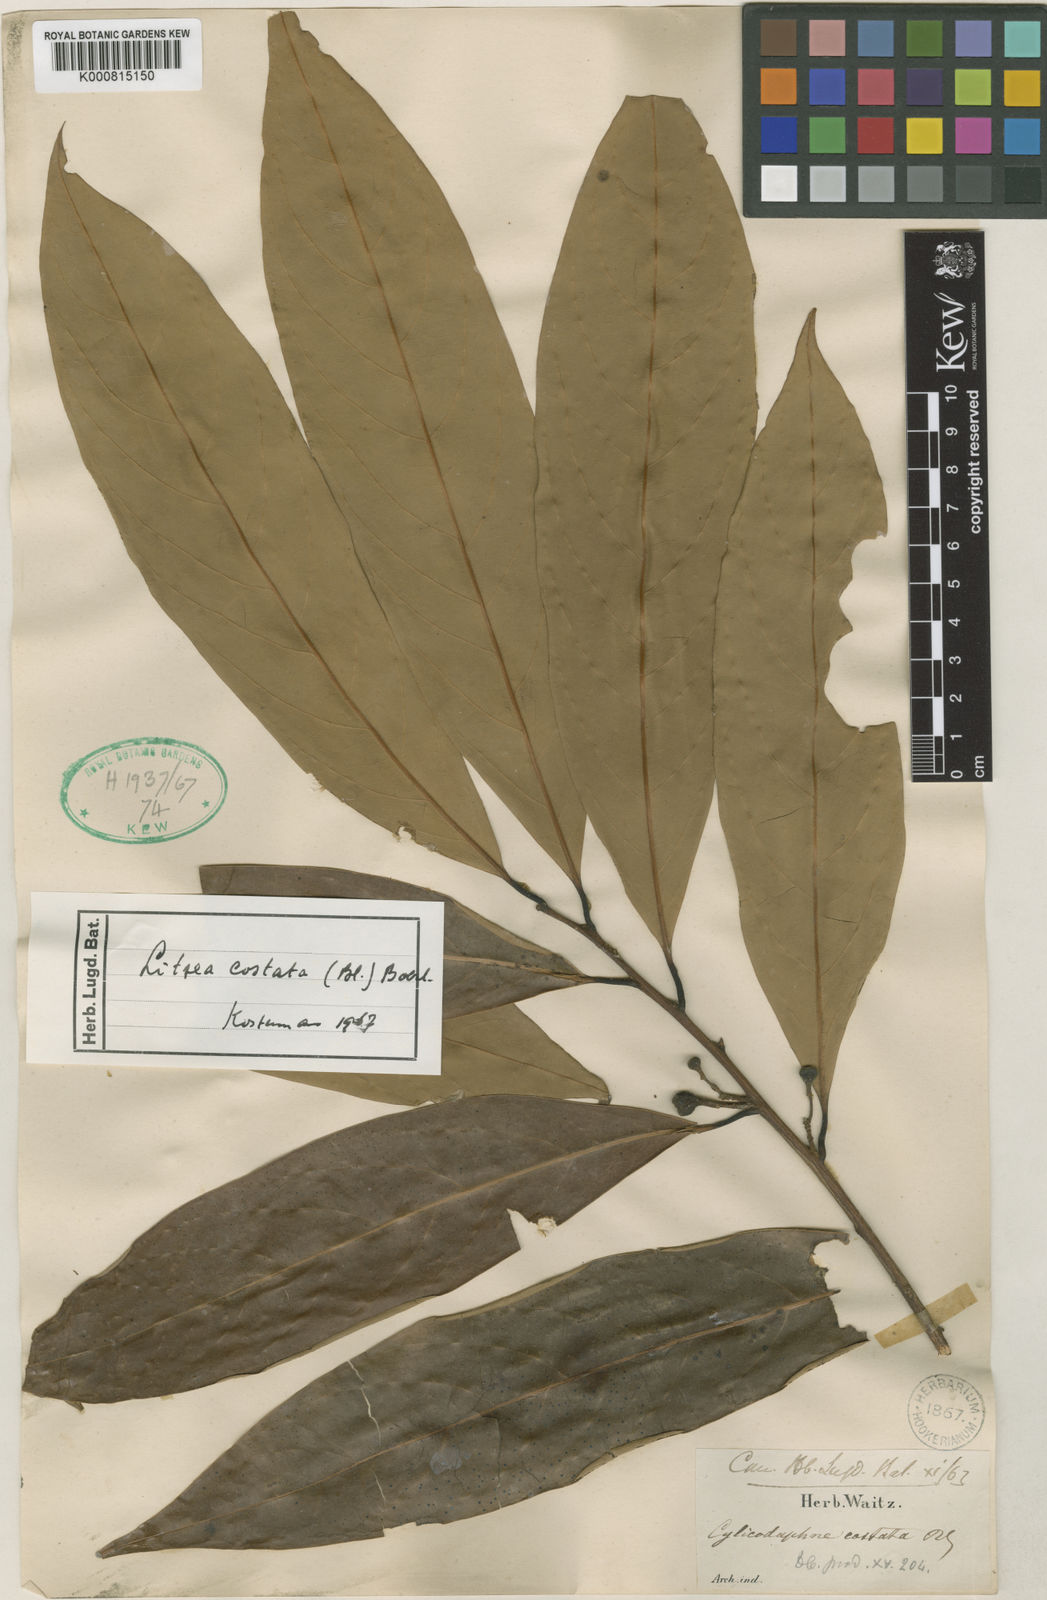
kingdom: Plantae
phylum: Tracheophyta
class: Magnoliopsida
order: Laurales
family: Lauraceae
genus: Litsea
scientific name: Litsea accedens
